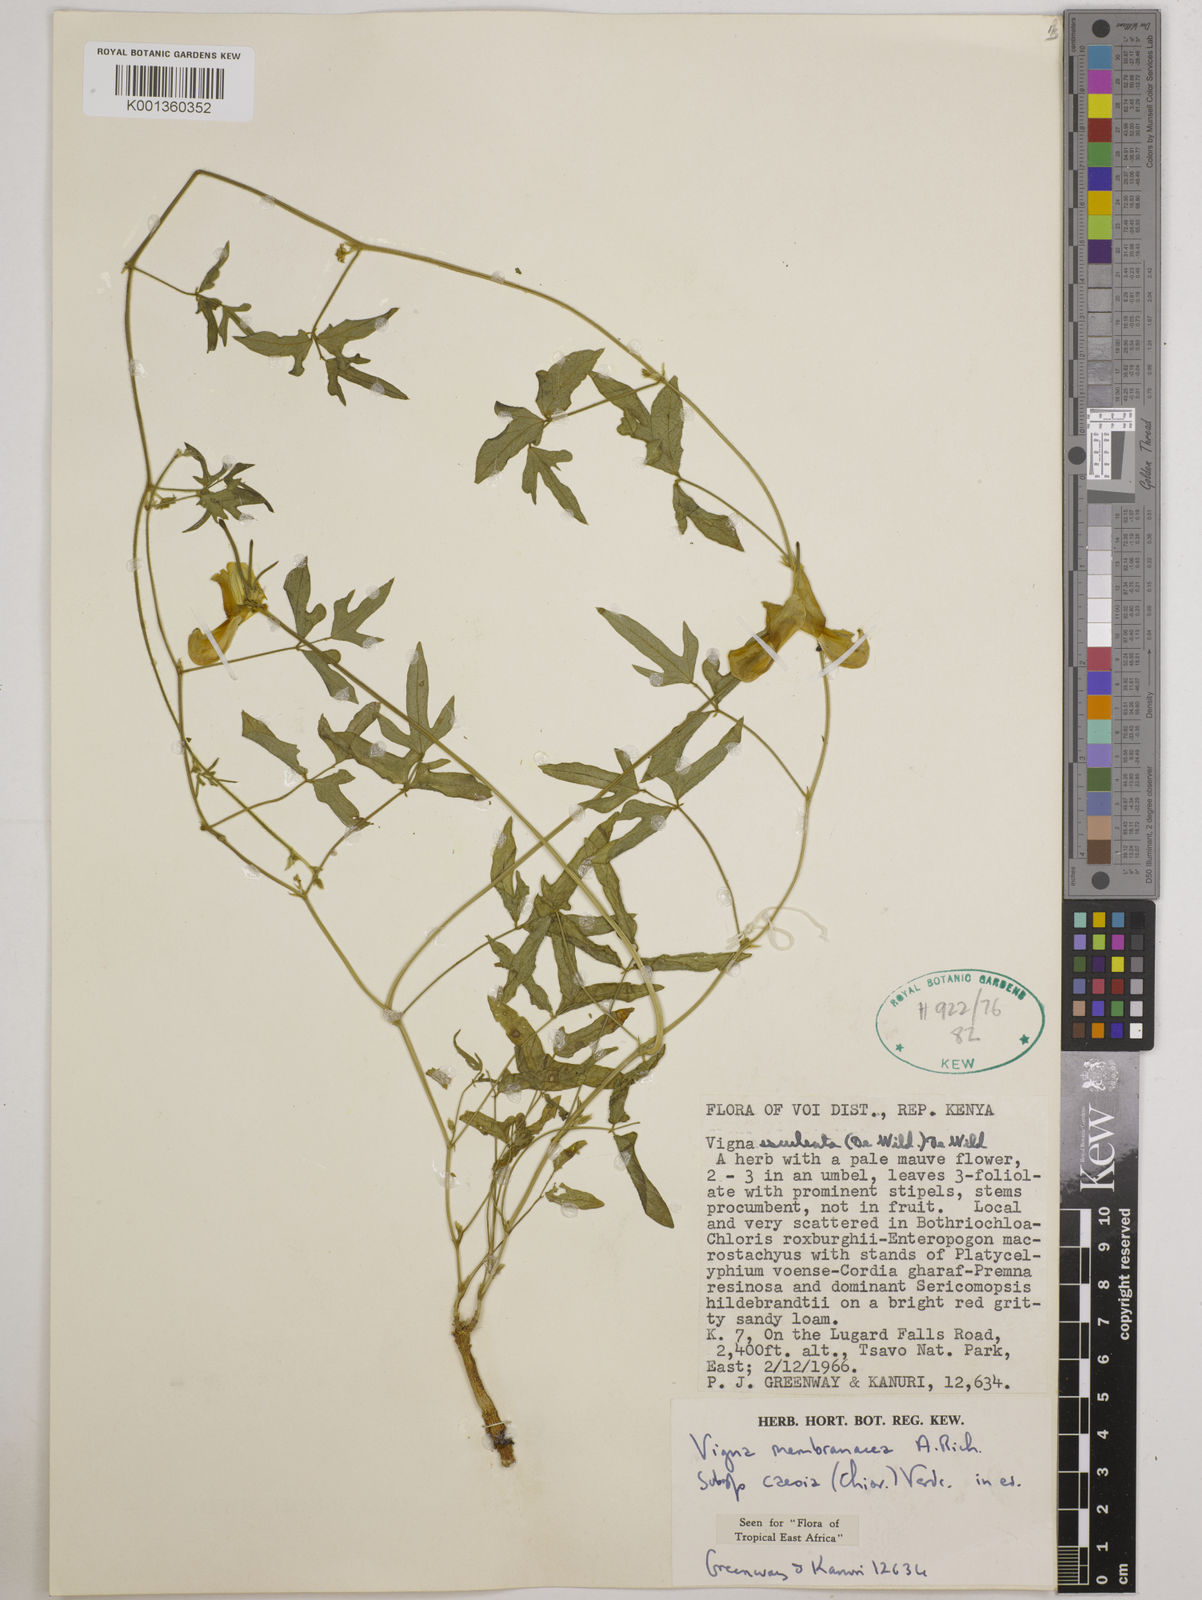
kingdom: Plantae
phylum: Tracheophyta
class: Magnoliopsida
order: Fabales
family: Fabaceae
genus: Vigna
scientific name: Vigna
